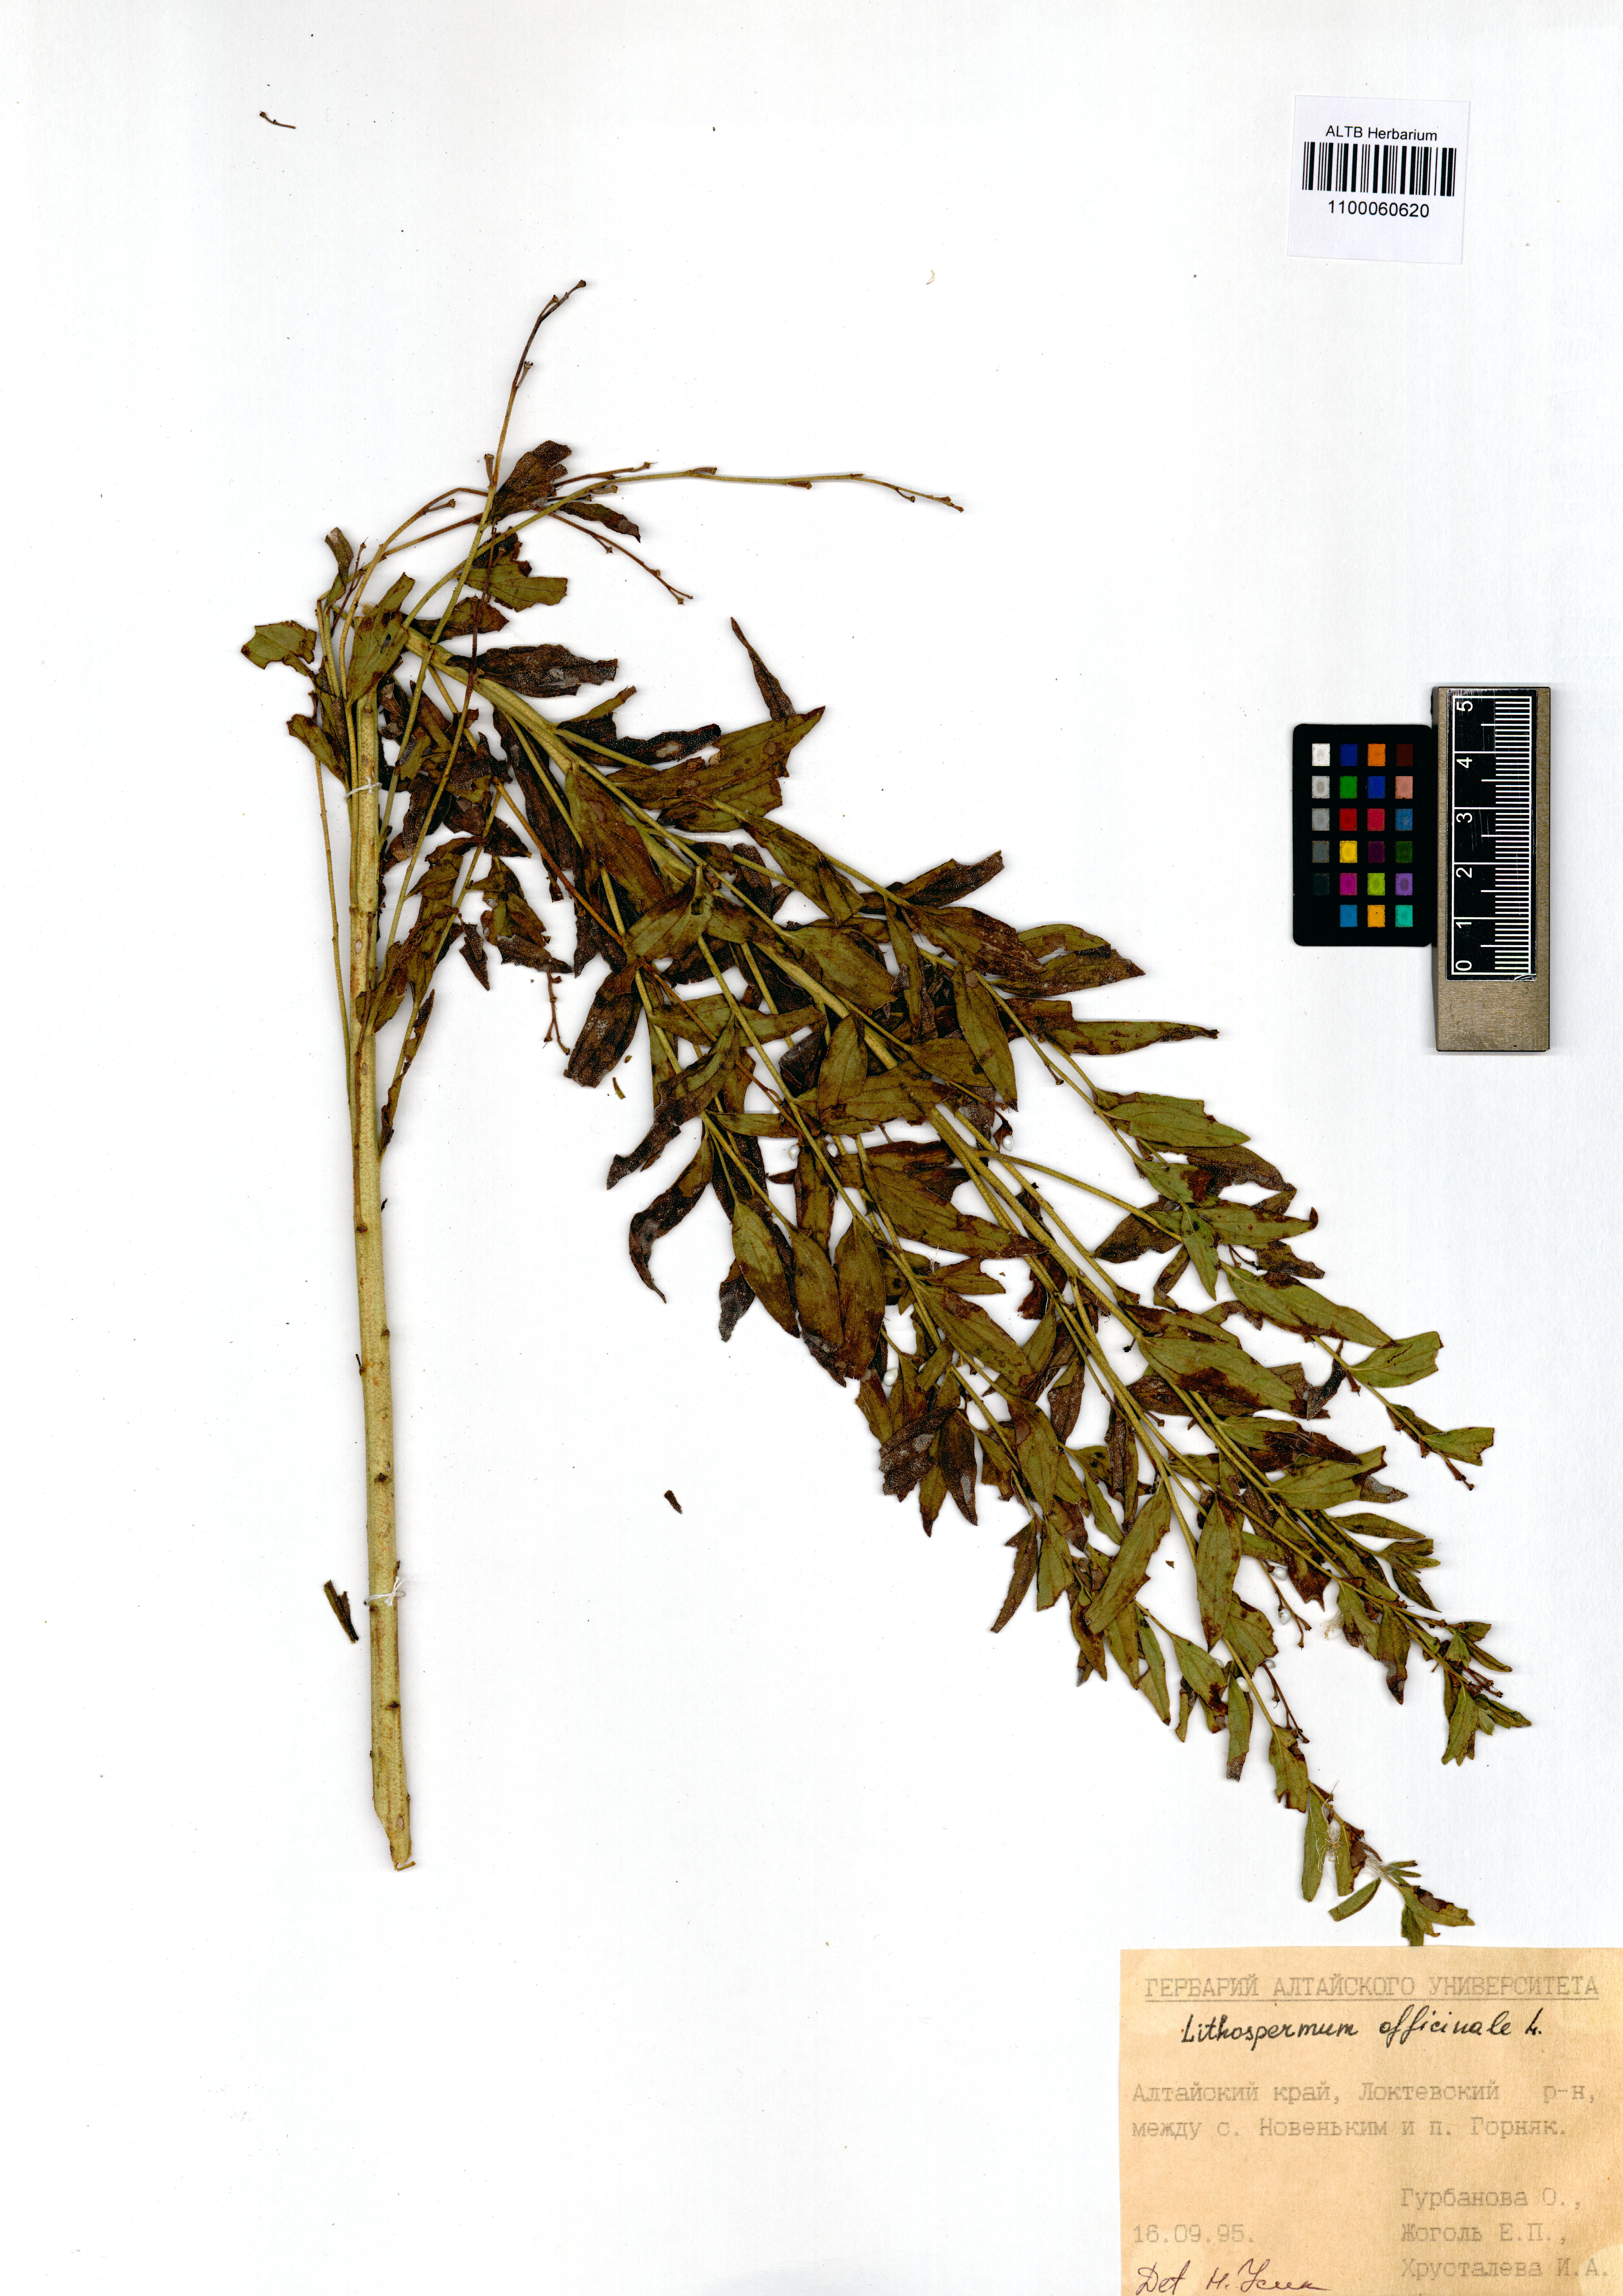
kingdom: Plantae
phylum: Tracheophyta
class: Magnoliopsida
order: Boraginales
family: Boraginaceae
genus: Lithospermum
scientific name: Lithospermum officinale
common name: Common gromwell
